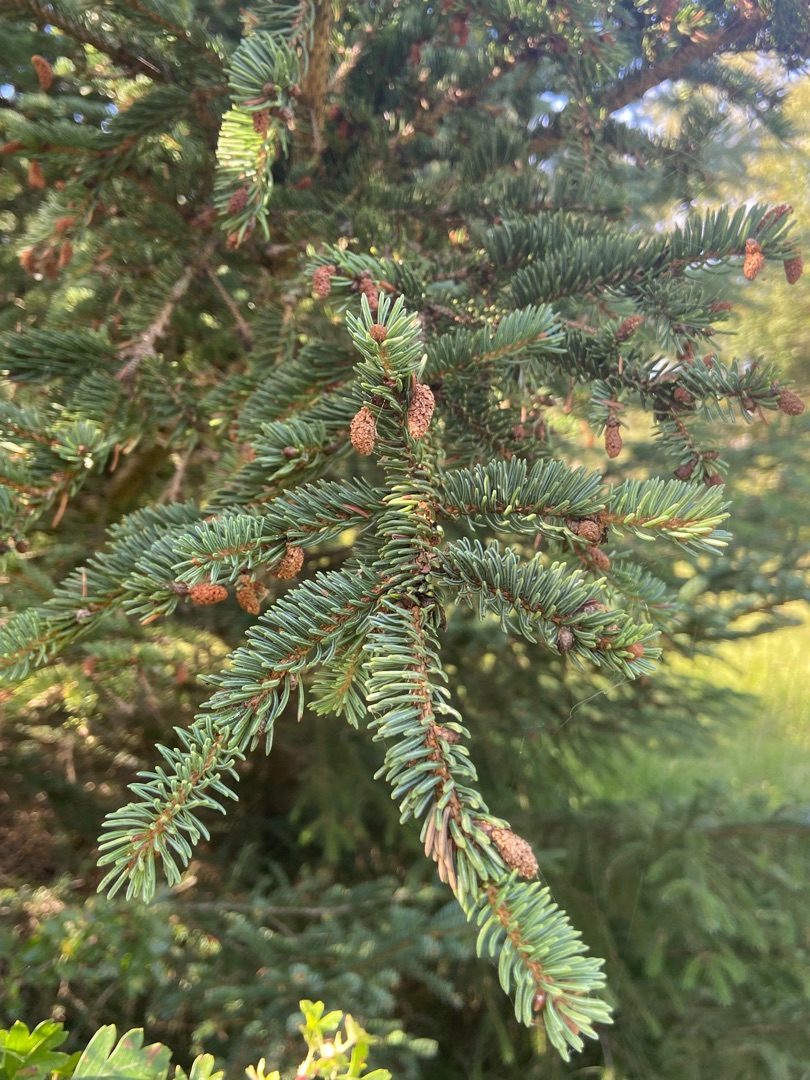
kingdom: Plantae
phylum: Tracheophyta
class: Pinopsida
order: Pinales
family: Pinaceae
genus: Picea
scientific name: Picea glauca
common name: Hvid-gran
